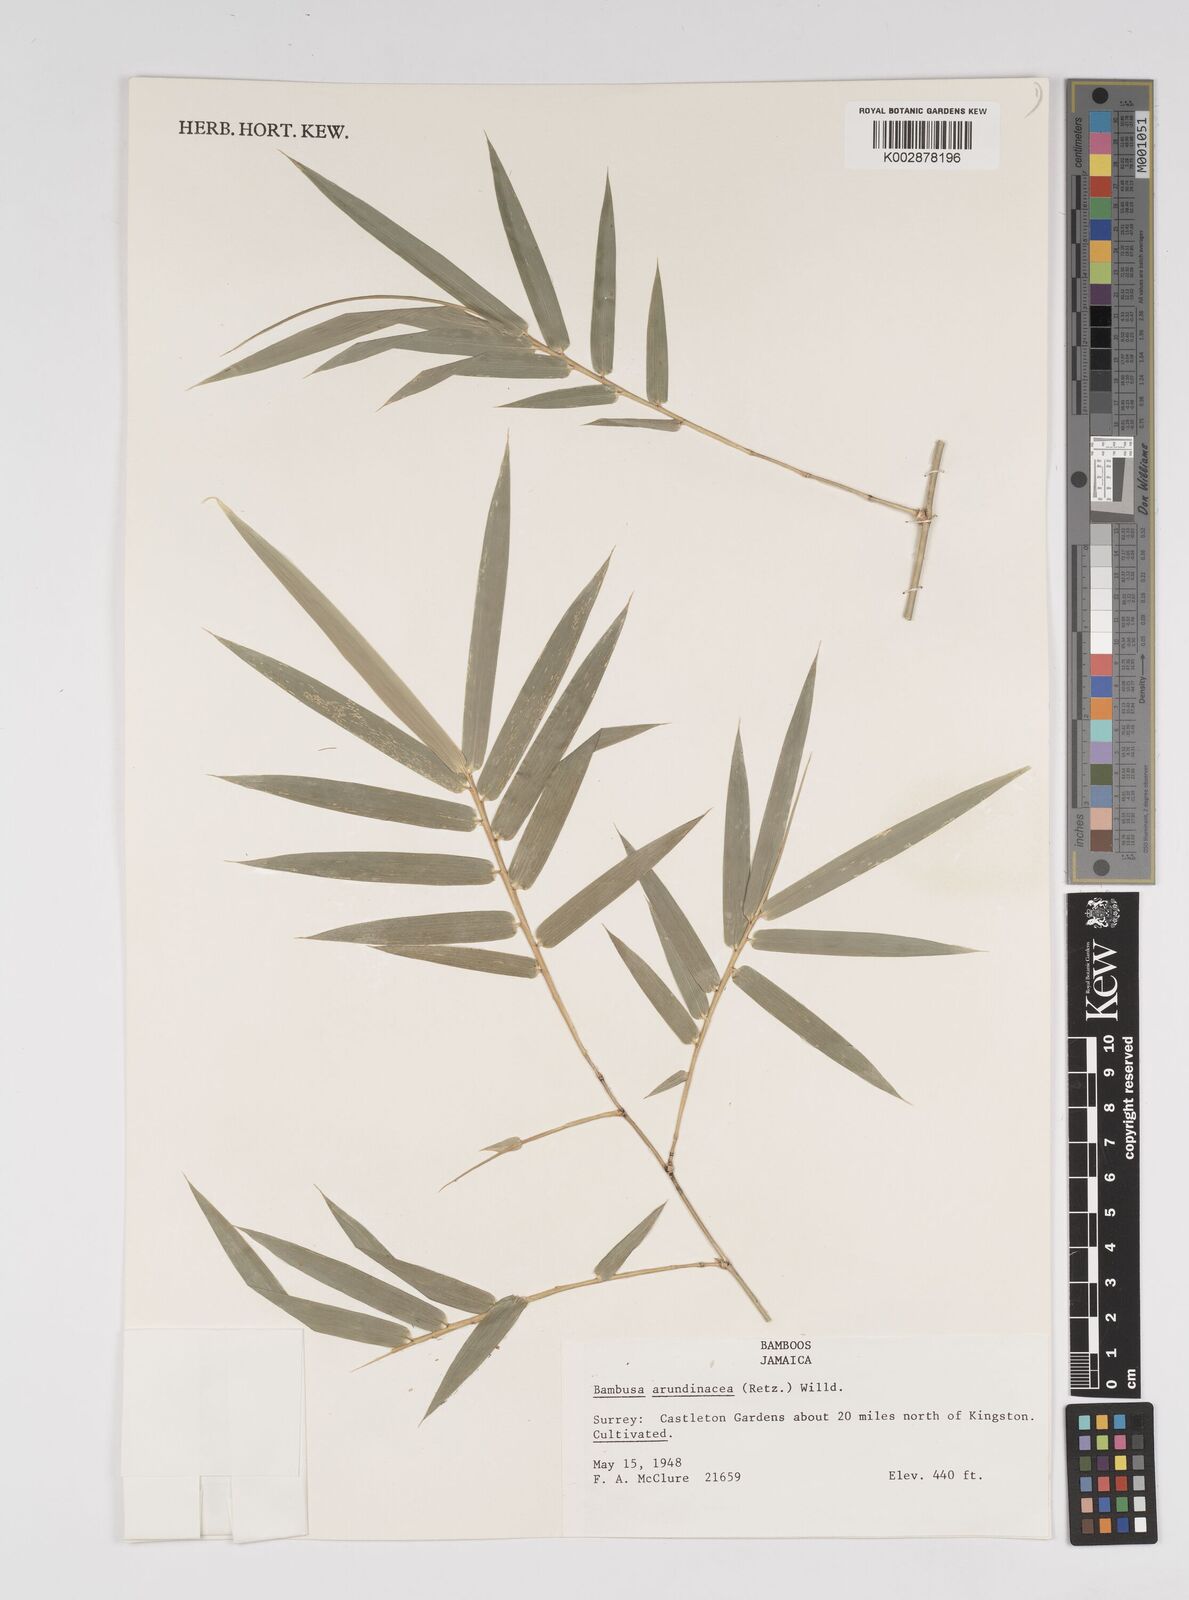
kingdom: Plantae
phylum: Tracheophyta
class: Liliopsida
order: Poales
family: Poaceae
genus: Bambusa
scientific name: Bambusa bambos
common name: Indian thorny bamboo
